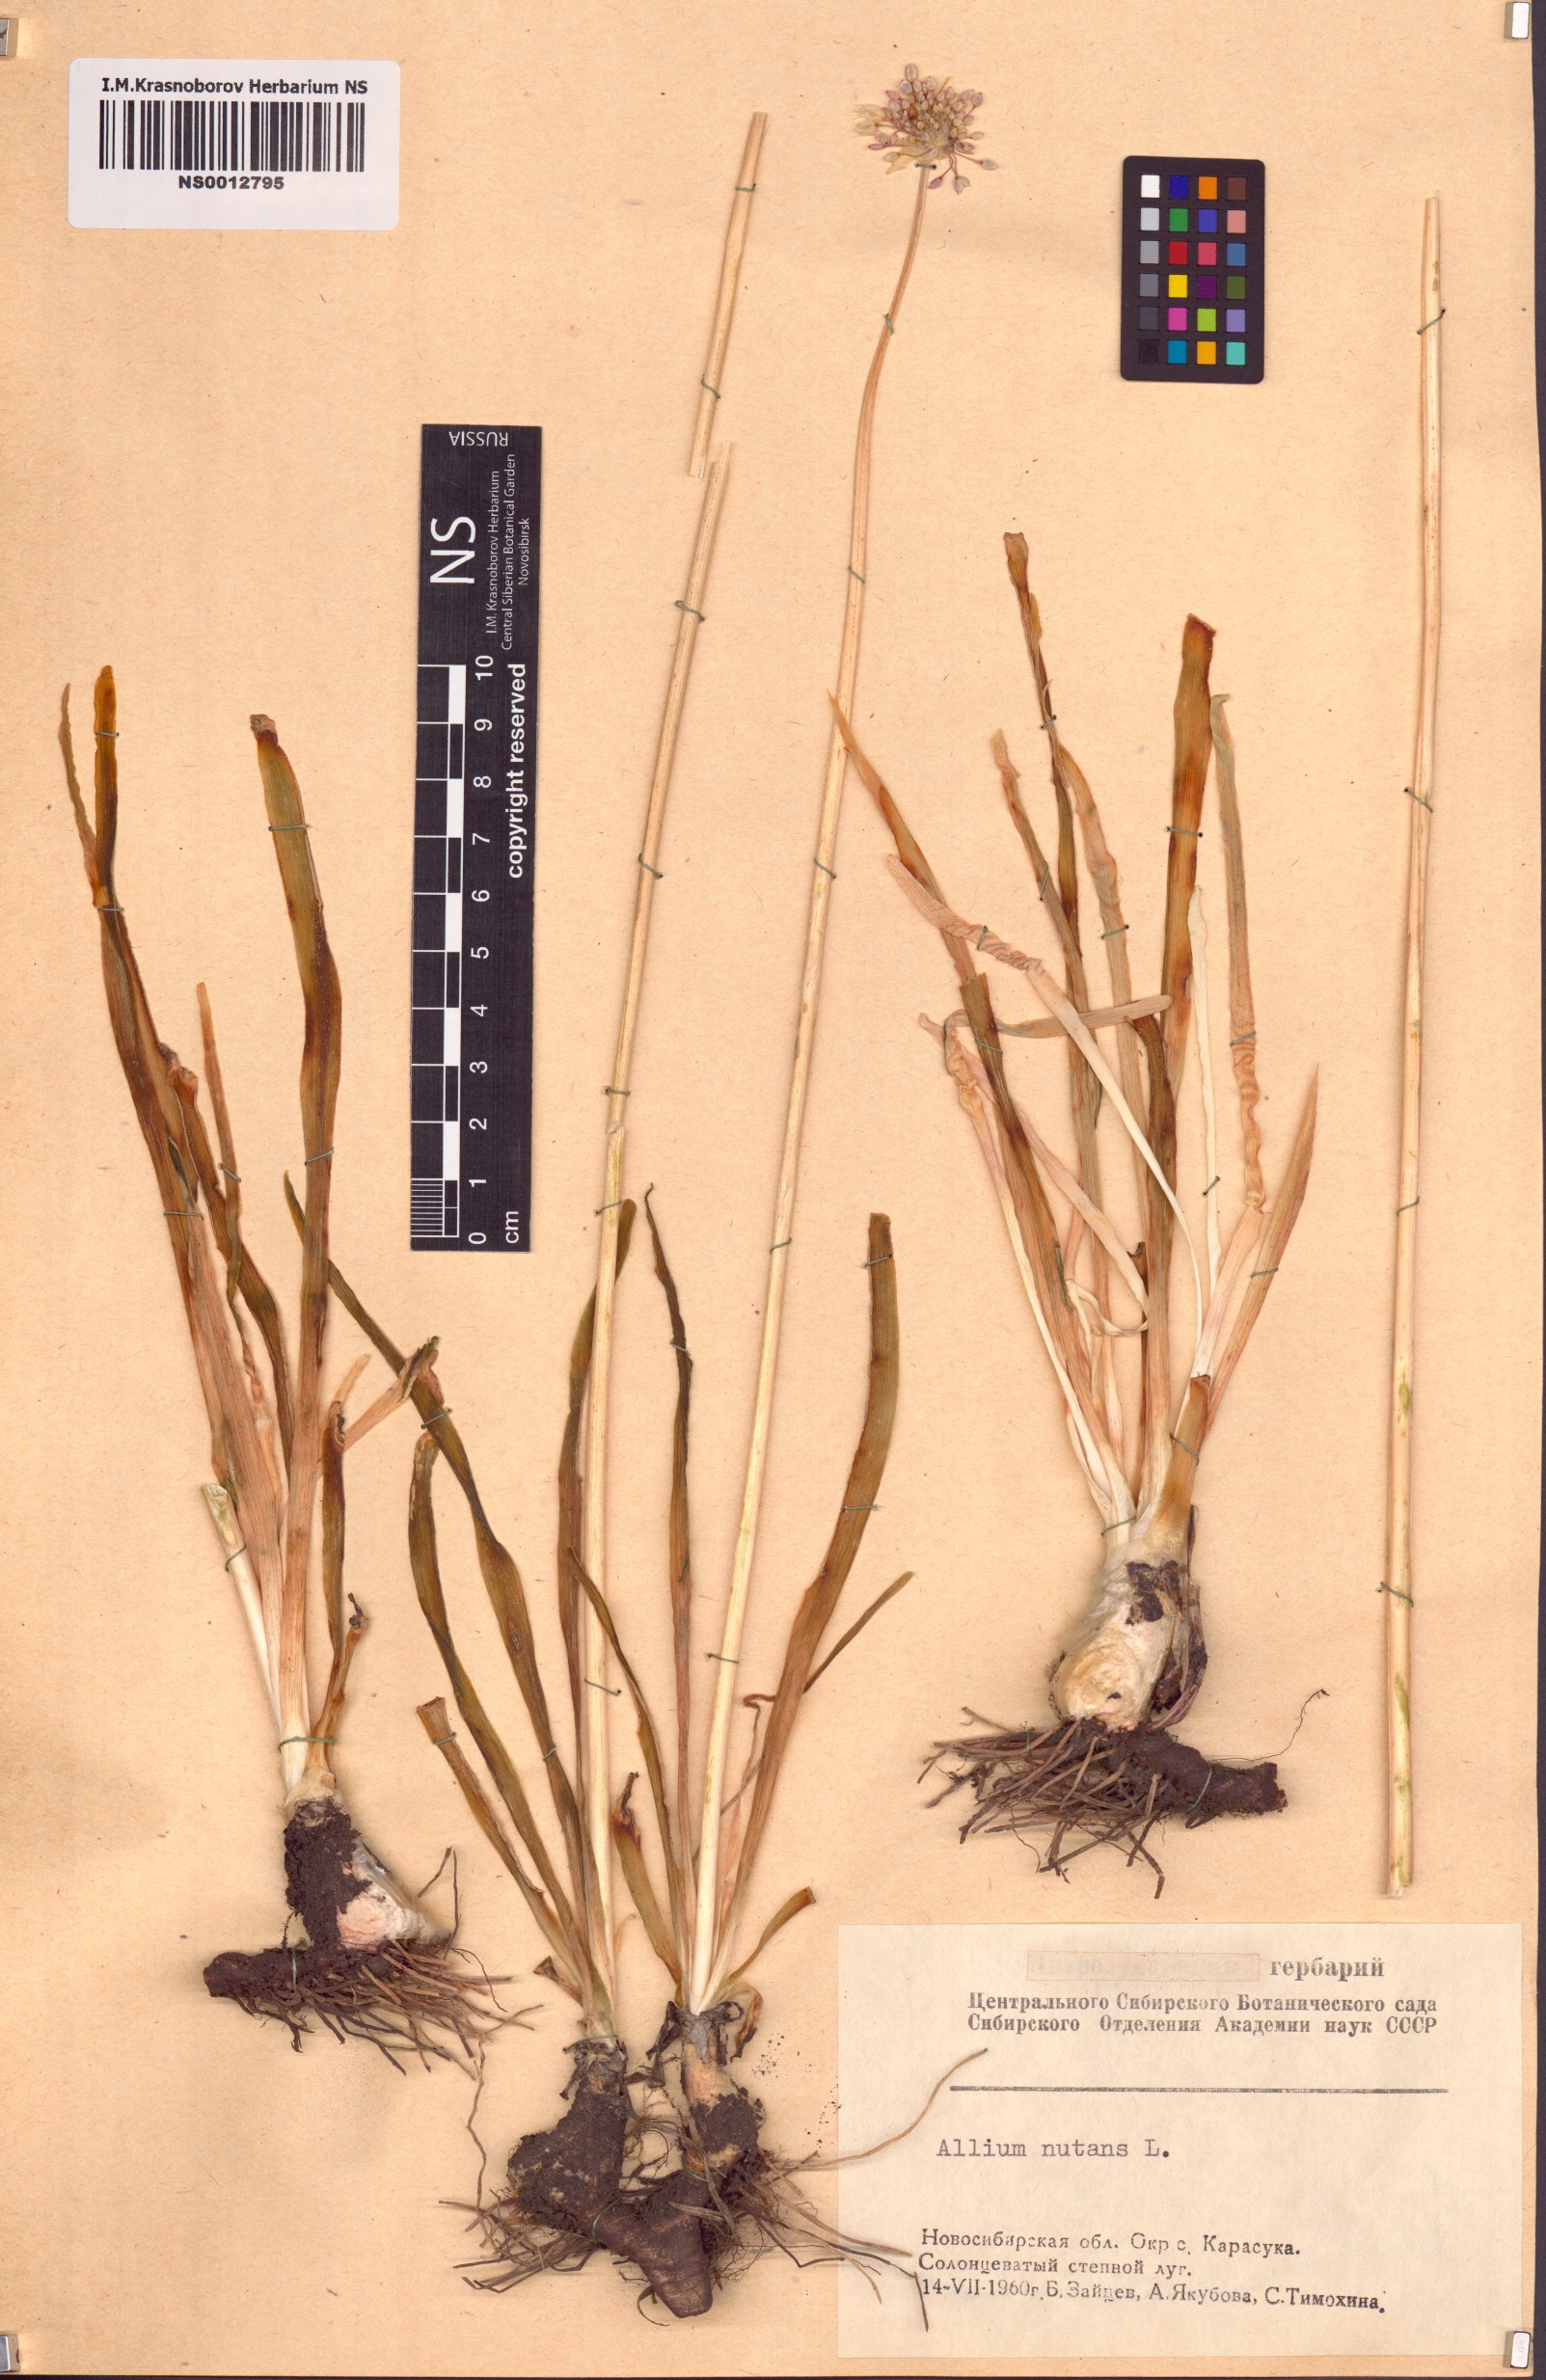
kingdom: Plantae
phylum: Tracheophyta
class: Liliopsida
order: Asparagales
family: Amaryllidaceae
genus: Allium
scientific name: Allium nutans
